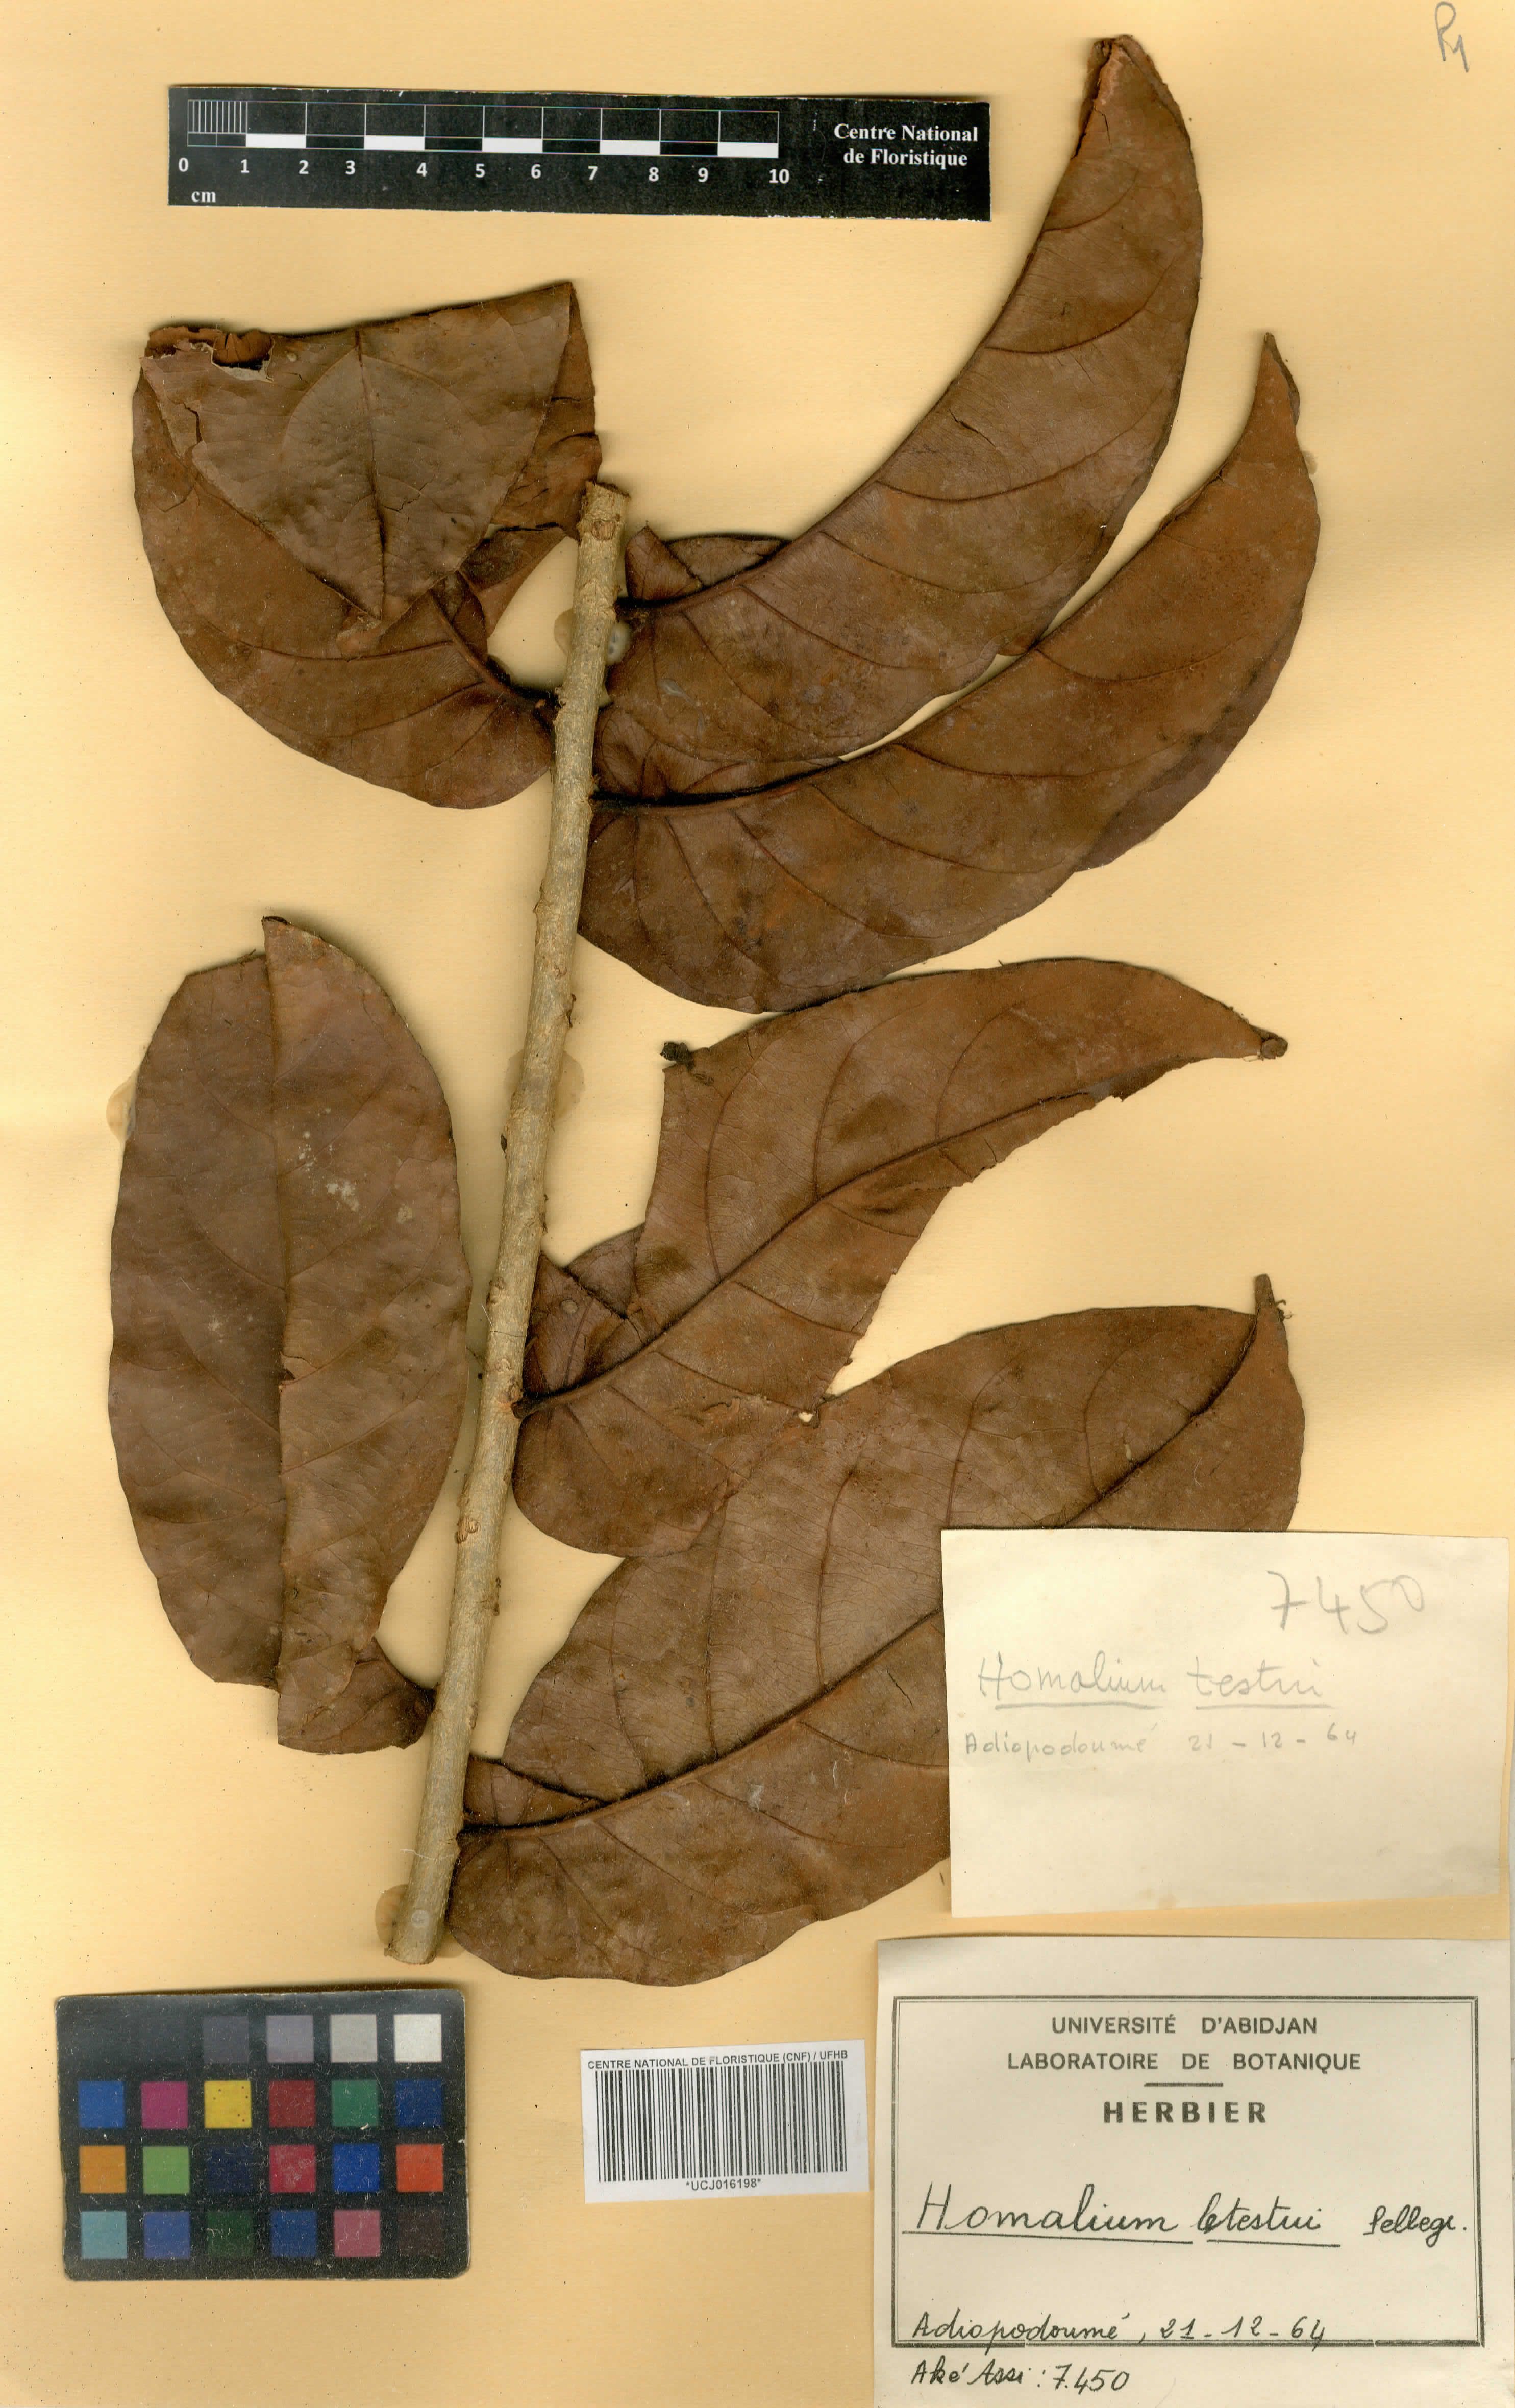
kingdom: Plantae
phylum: Tracheophyta
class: Magnoliopsida
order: Malpighiales
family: Salicaceae
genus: Homalium
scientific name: Homalium letestui
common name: African homalium
